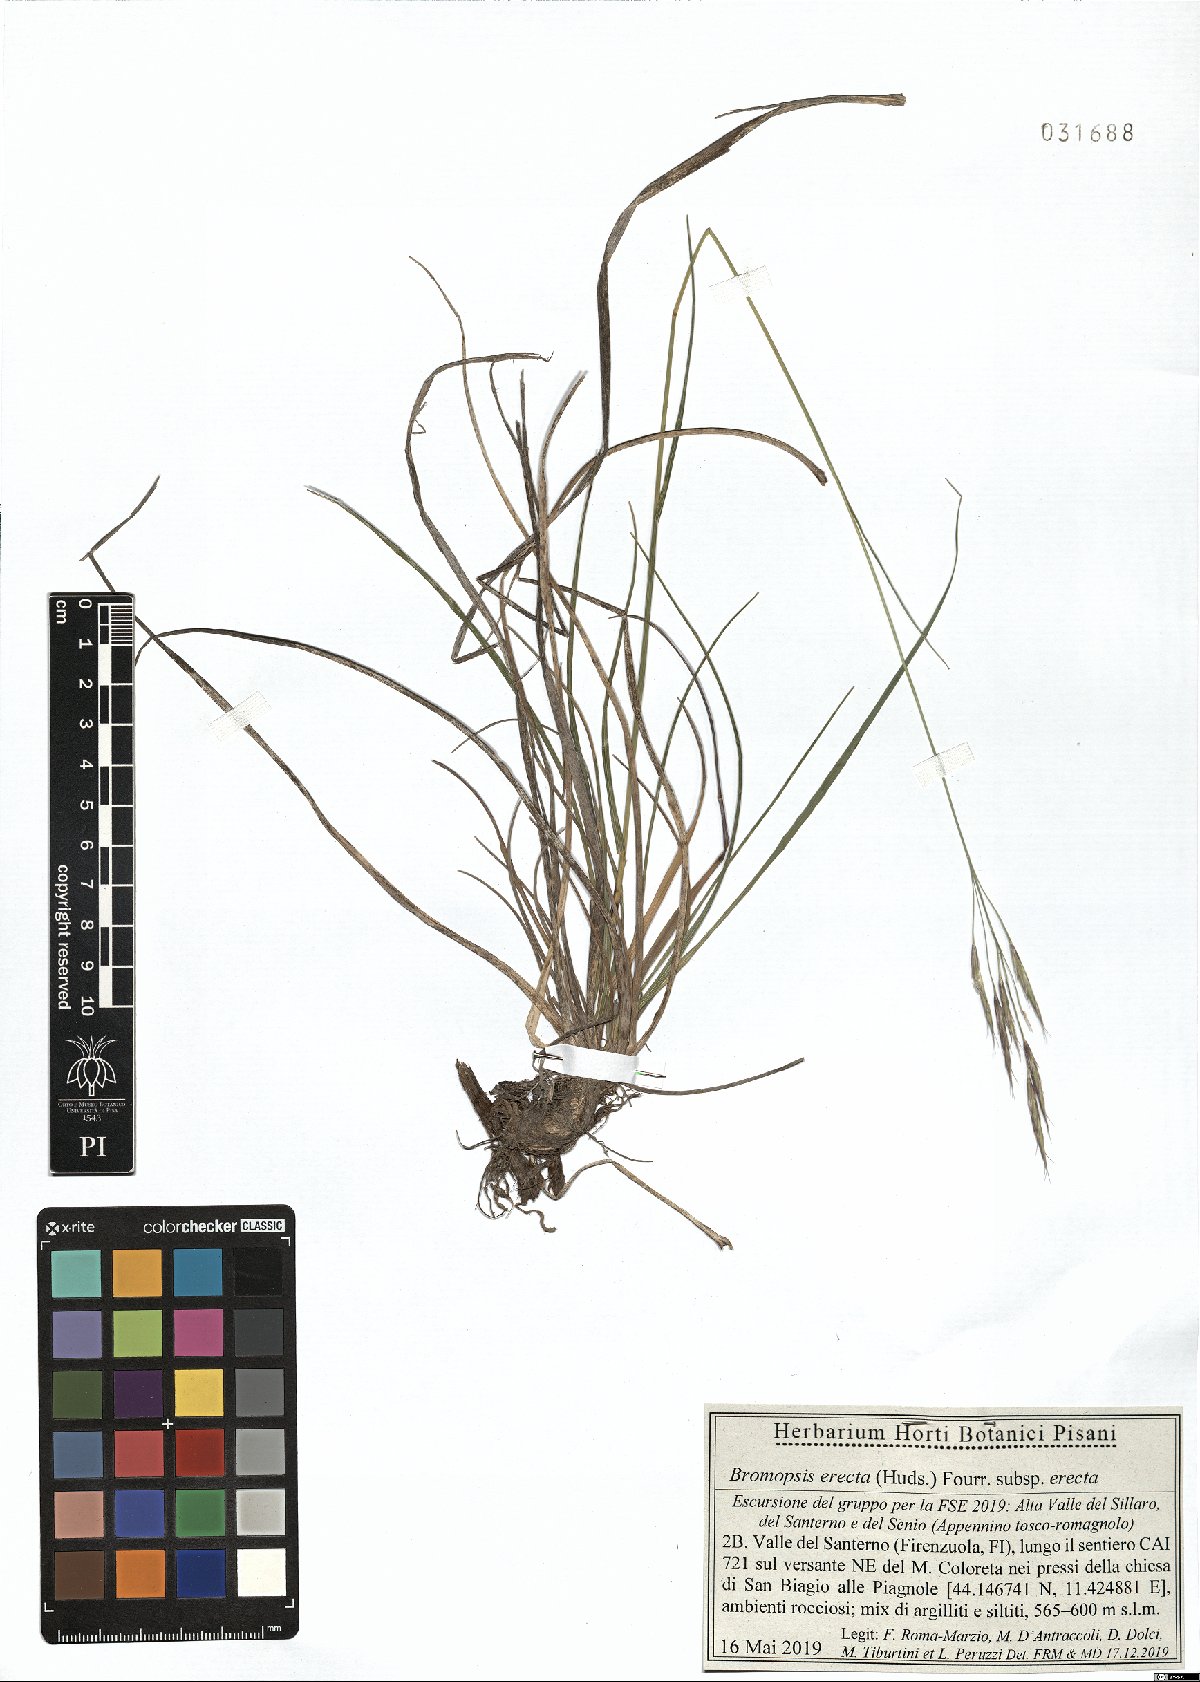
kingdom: Plantae
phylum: Tracheophyta
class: Liliopsida
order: Poales
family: Poaceae
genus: Bromus
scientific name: Bromus erectus
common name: Erect brome
